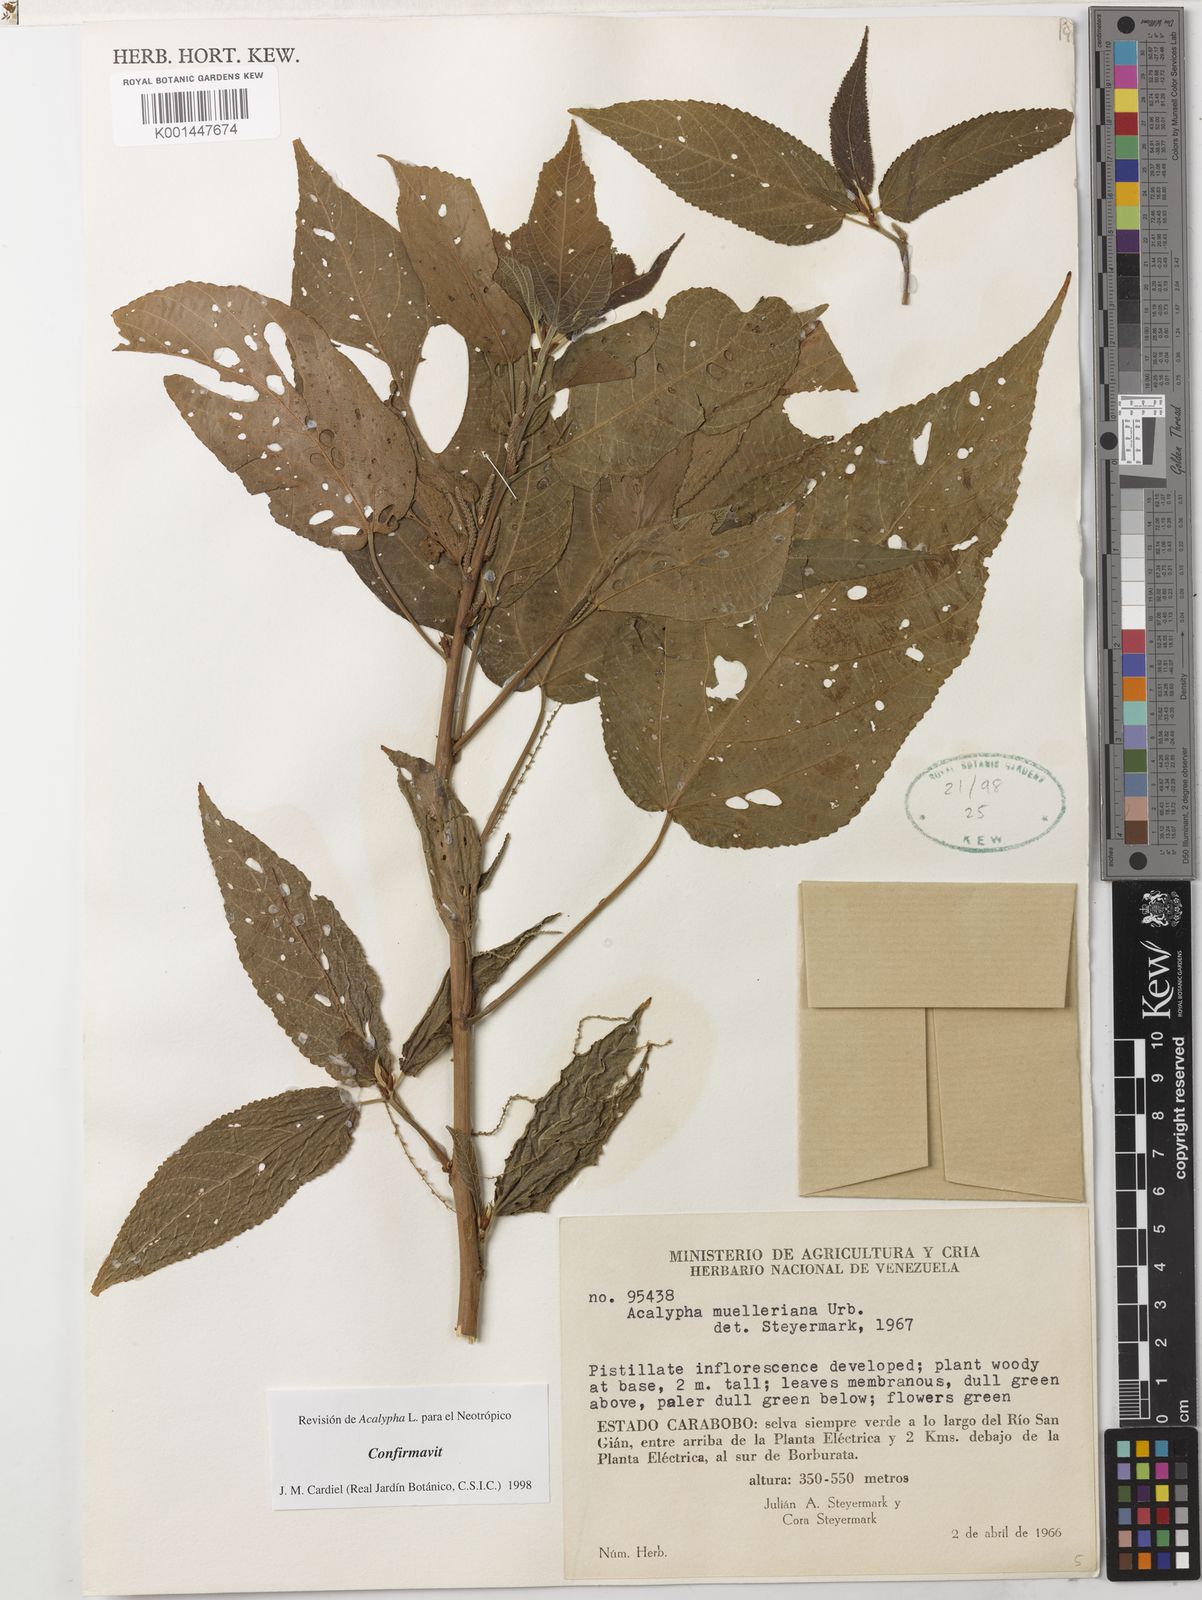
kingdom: Plantae
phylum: Tracheophyta
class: Magnoliopsida
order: Malpighiales
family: Euphorbiaceae
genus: Acalypha
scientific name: Acalypha muelleriana
